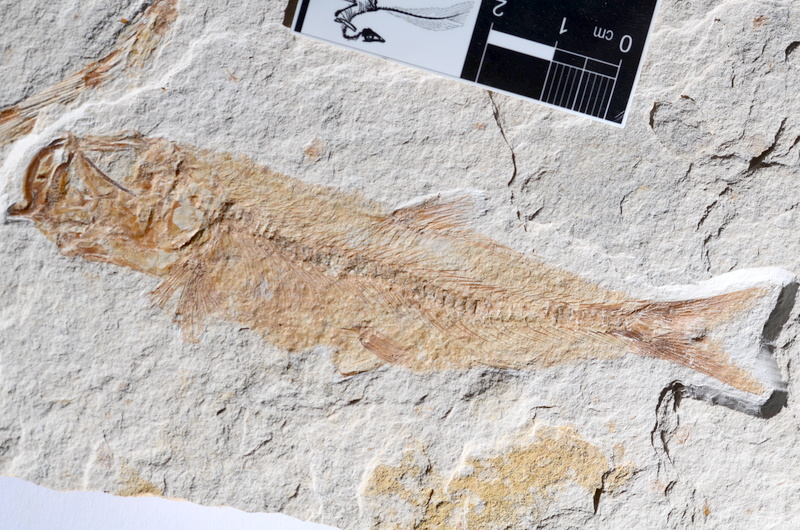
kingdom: Animalia
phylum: Chordata
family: Ascalaboidae
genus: Tharsis
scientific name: Tharsis dubius
